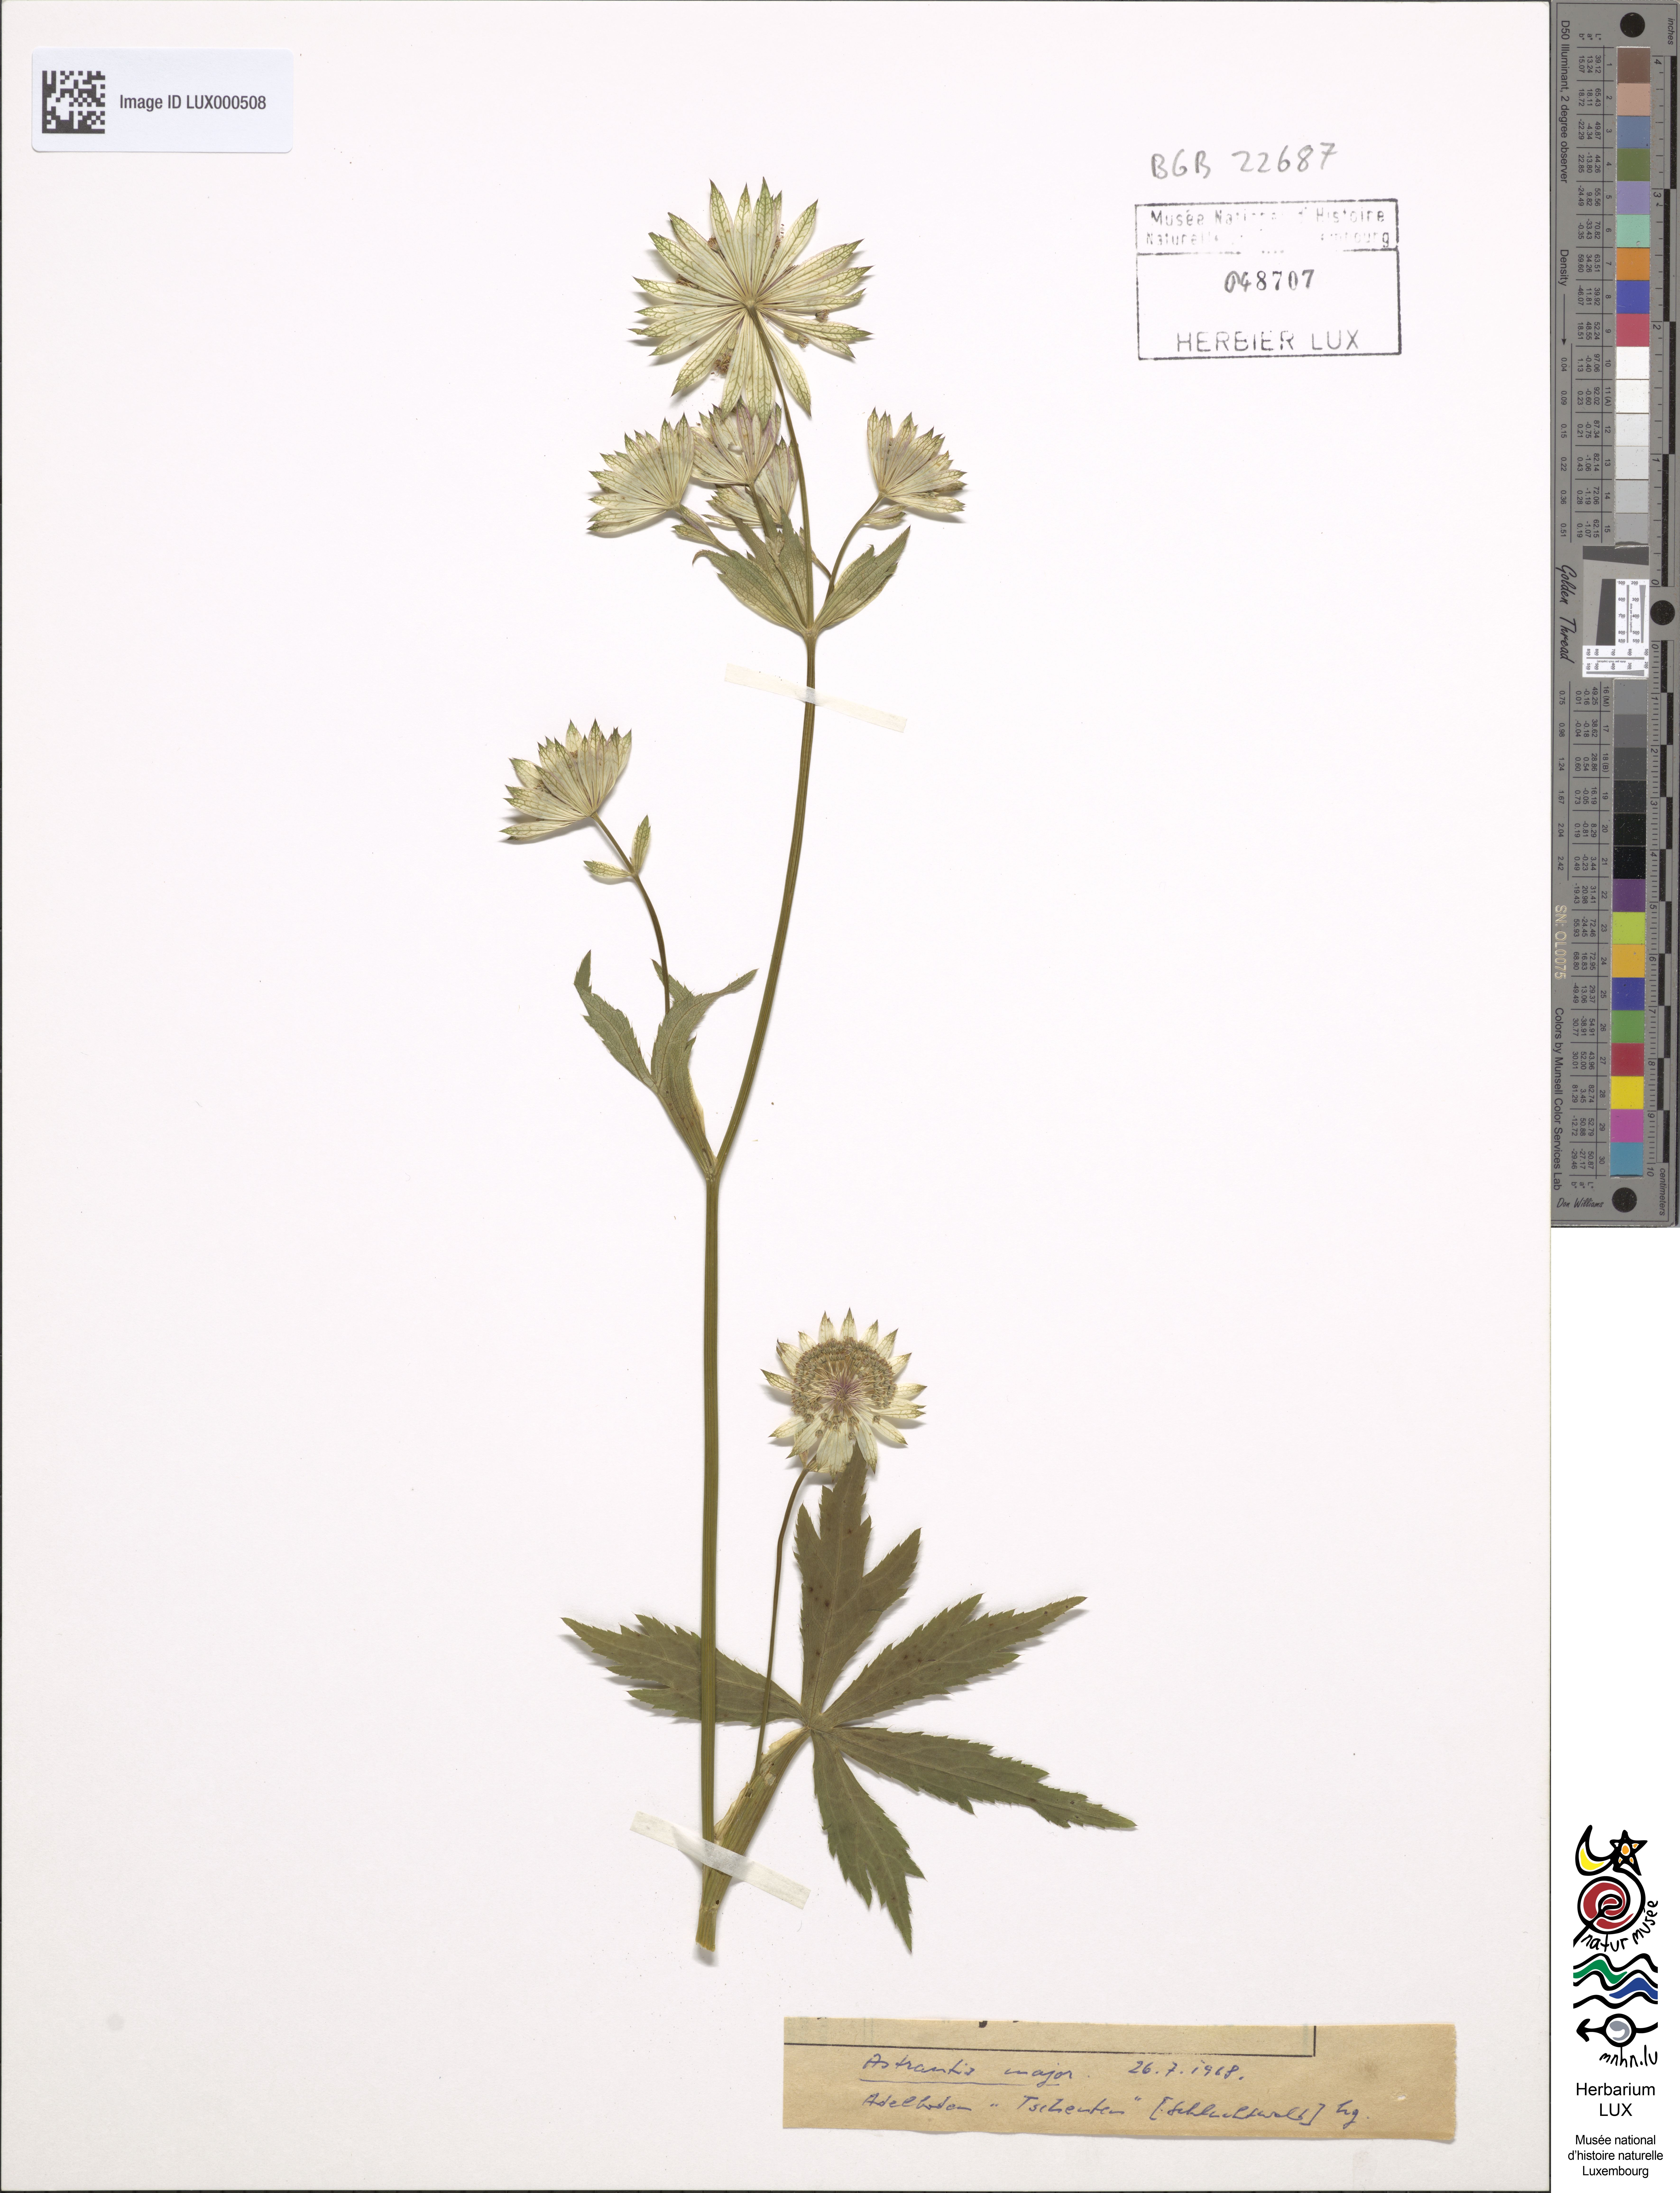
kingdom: Plantae
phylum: Tracheophyta
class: Magnoliopsida
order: Apiales
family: Apiaceae
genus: Astrantia
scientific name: Astrantia major
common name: Greater masterwort
